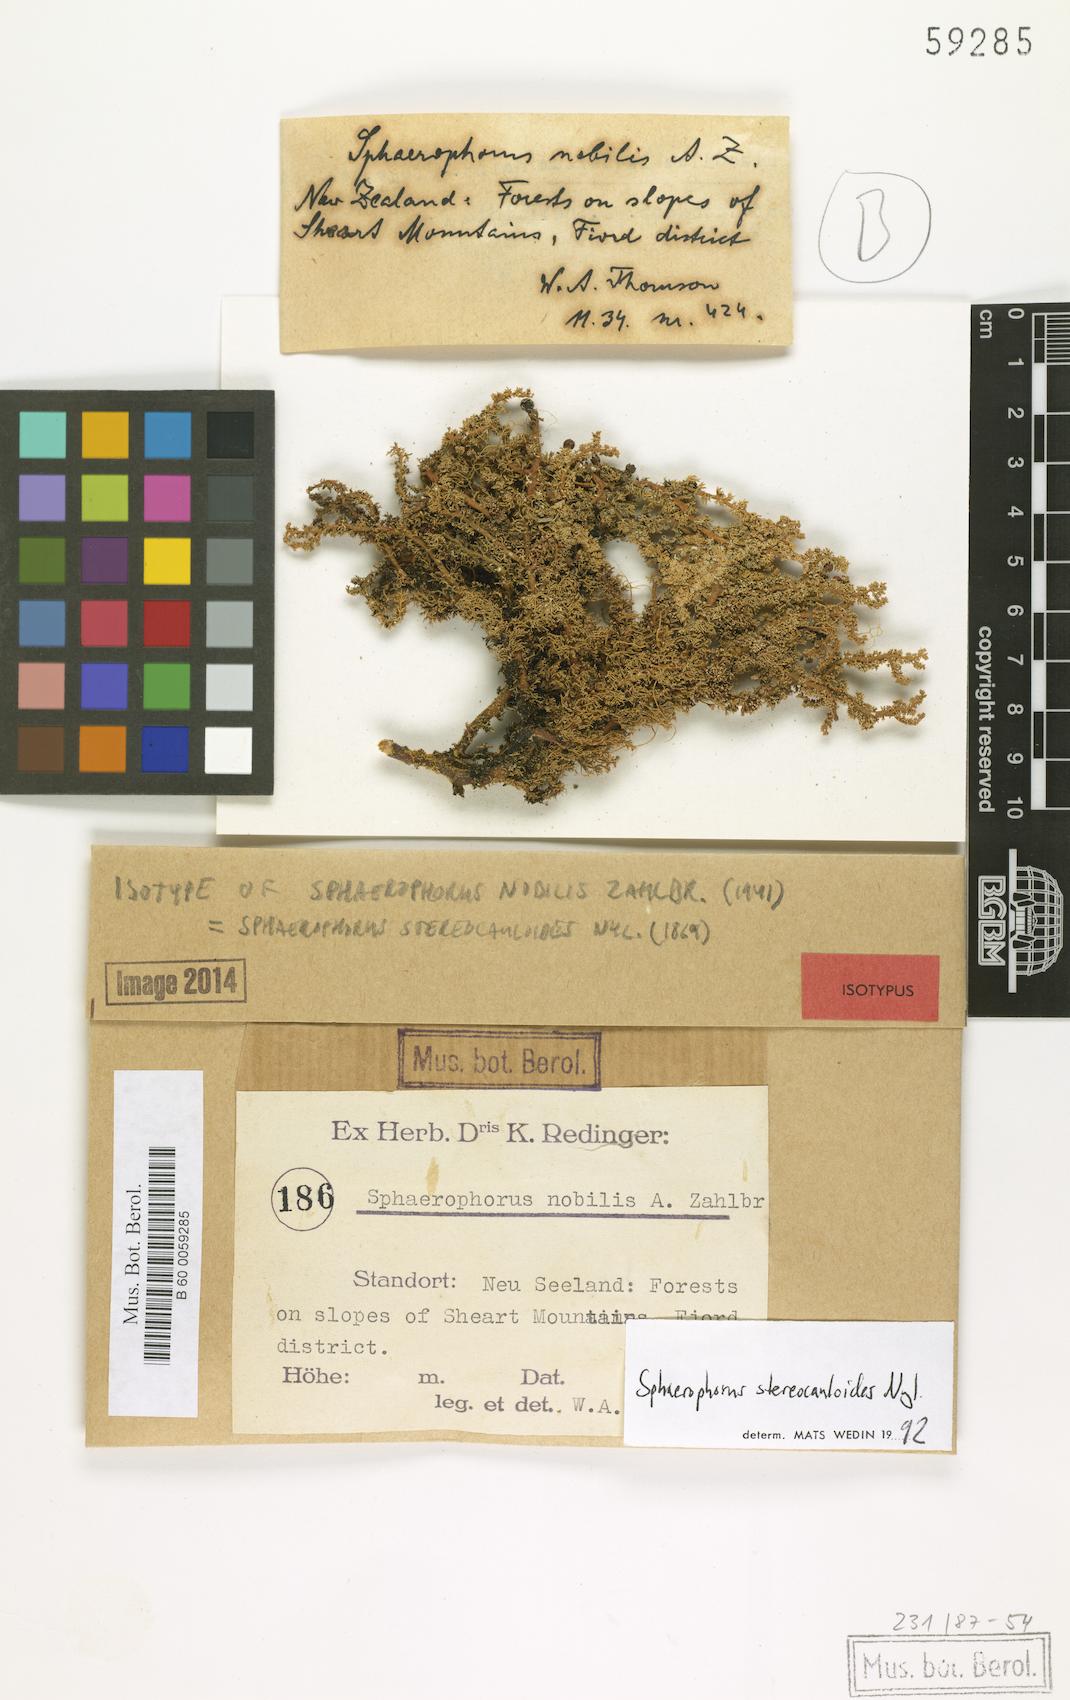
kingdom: Fungi
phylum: Ascomycota
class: Lecanoromycetes
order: Lecanorales
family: Sphaerophoraceae
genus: Sphaerophorus
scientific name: Sphaerophorus stereocauloides
